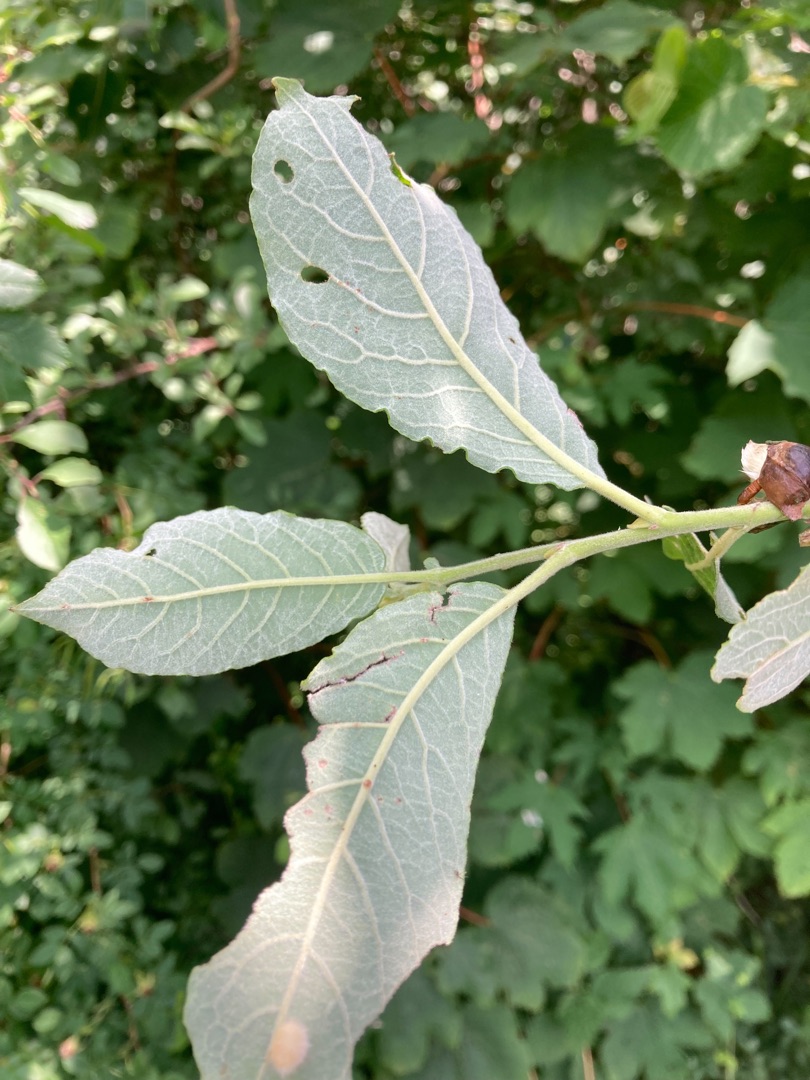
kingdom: Plantae
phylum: Tracheophyta
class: Magnoliopsida
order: Malpighiales
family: Salicaceae
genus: Salix
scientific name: Salix cinerea
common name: Grå-pil
